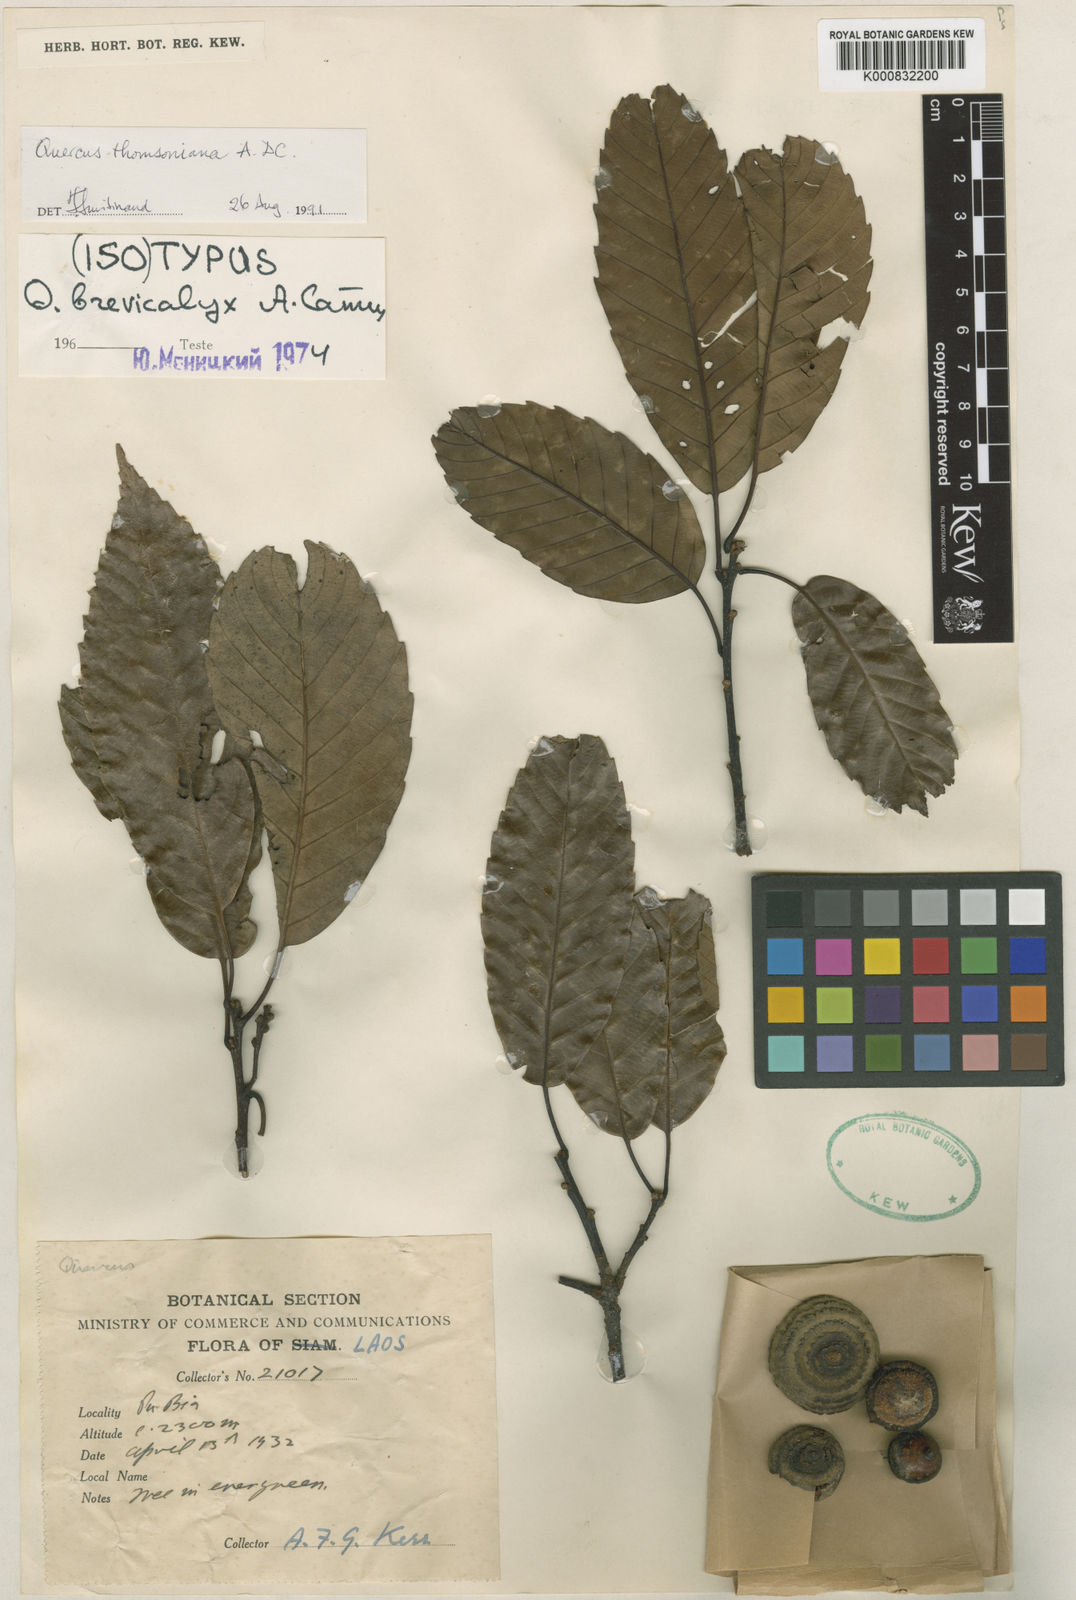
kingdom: Plantae
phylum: Tracheophyta
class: Magnoliopsida
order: Fagales
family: Fagaceae
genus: Quercus
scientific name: Quercus thomsoniana
